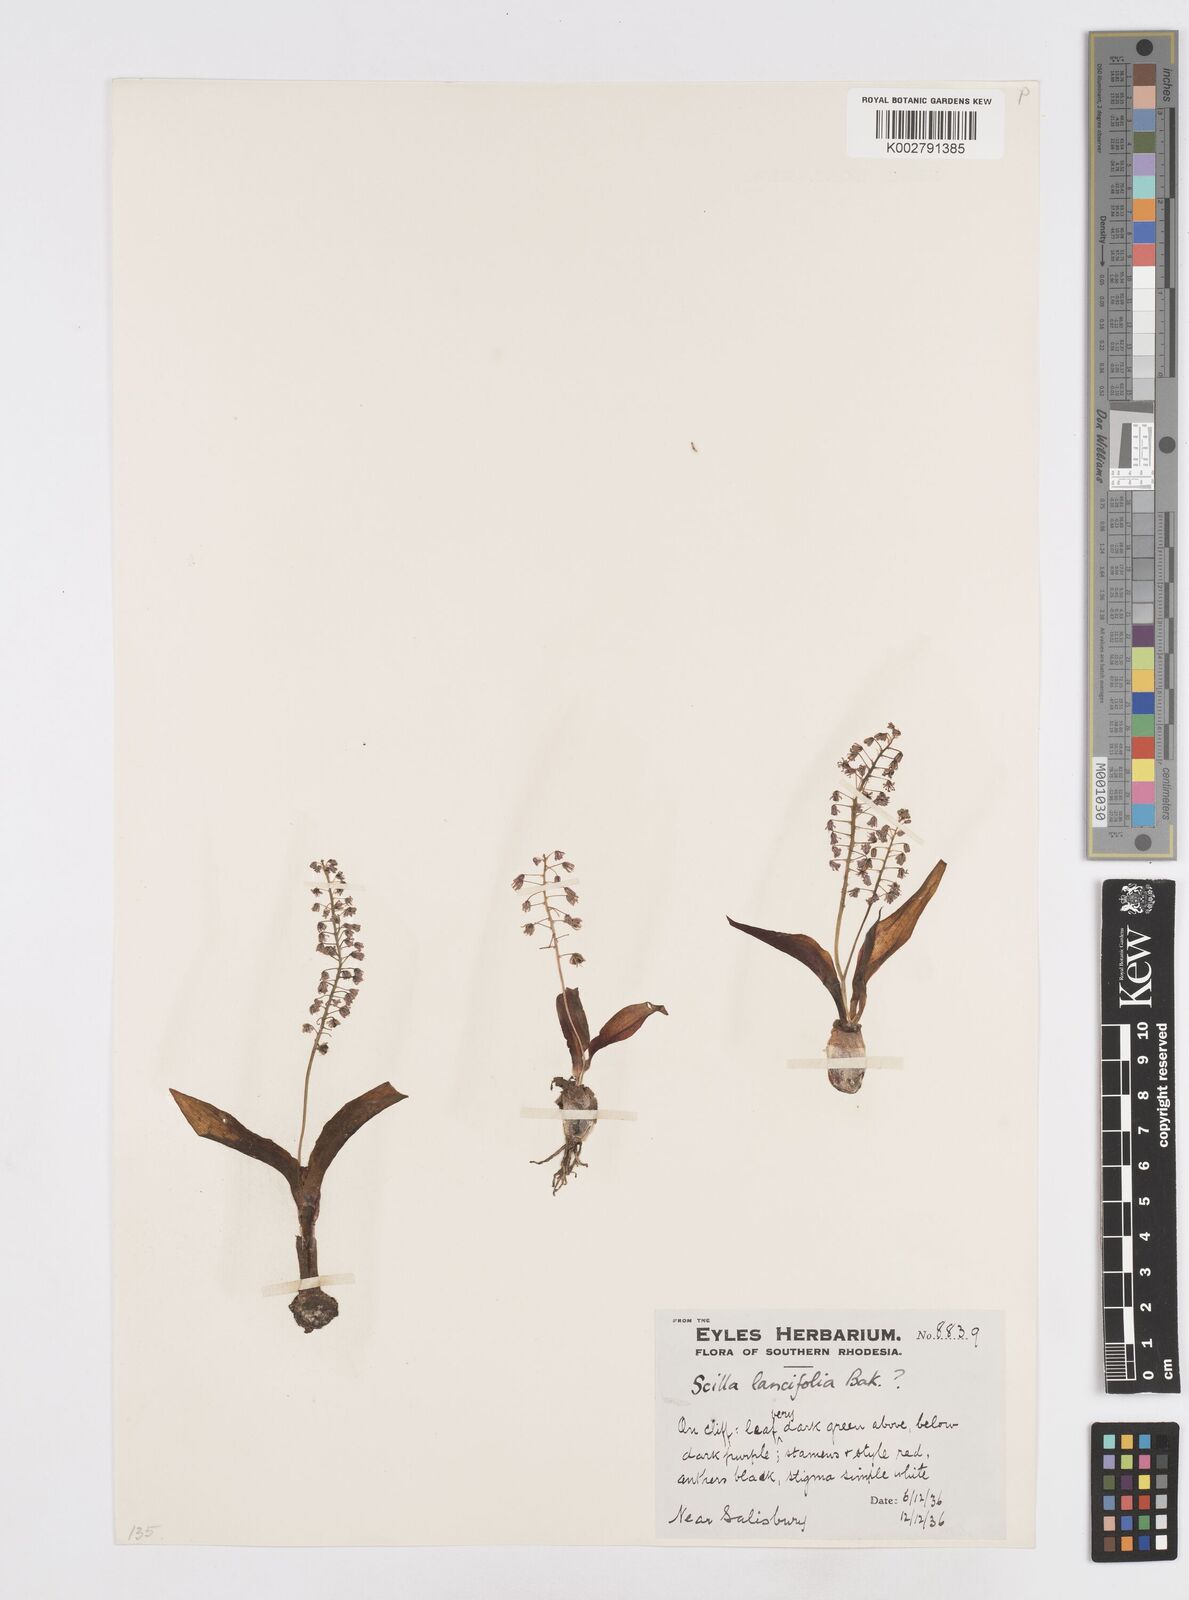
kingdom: Plantae
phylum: Tracheophyta
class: Liliopsida
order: Asparagales
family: Asparagaceae
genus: Ledebouria
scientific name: Ledebouria zambesiaca
